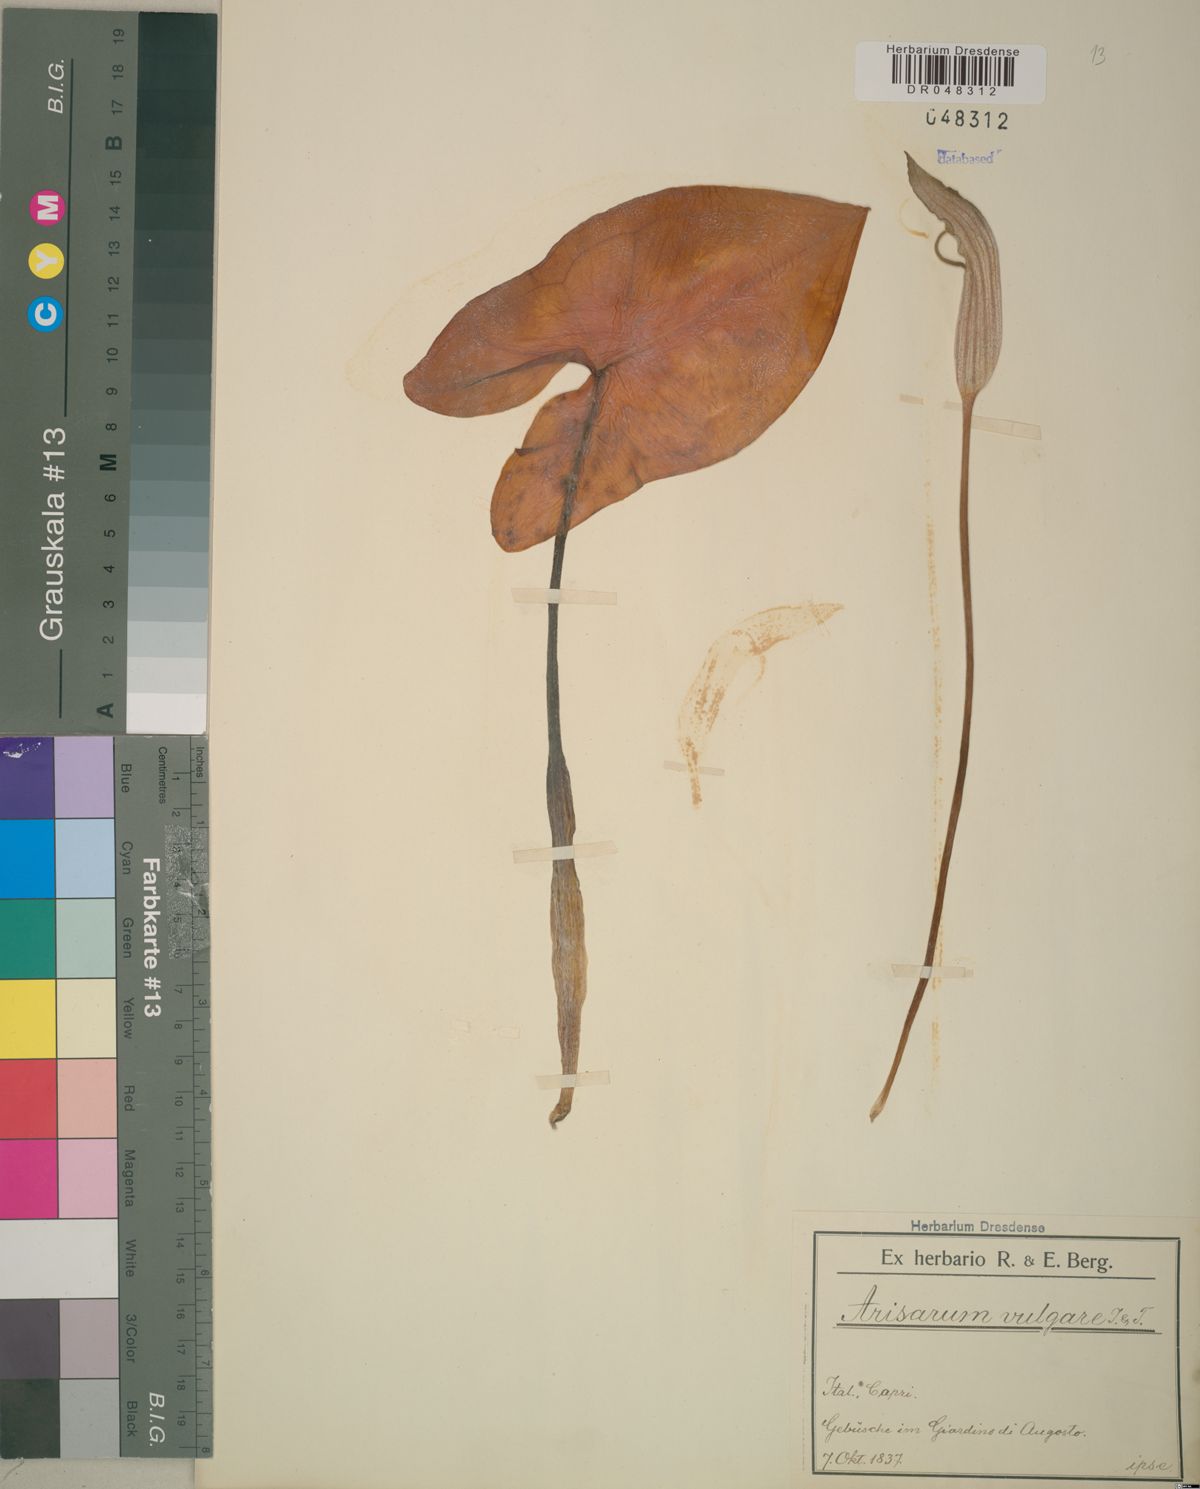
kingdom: Plantae
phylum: Tracheophyta
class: Liliopsida
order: Alismatales
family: Araceae
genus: Arisarum
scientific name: Arisarum vulgare
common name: Common arisarum
